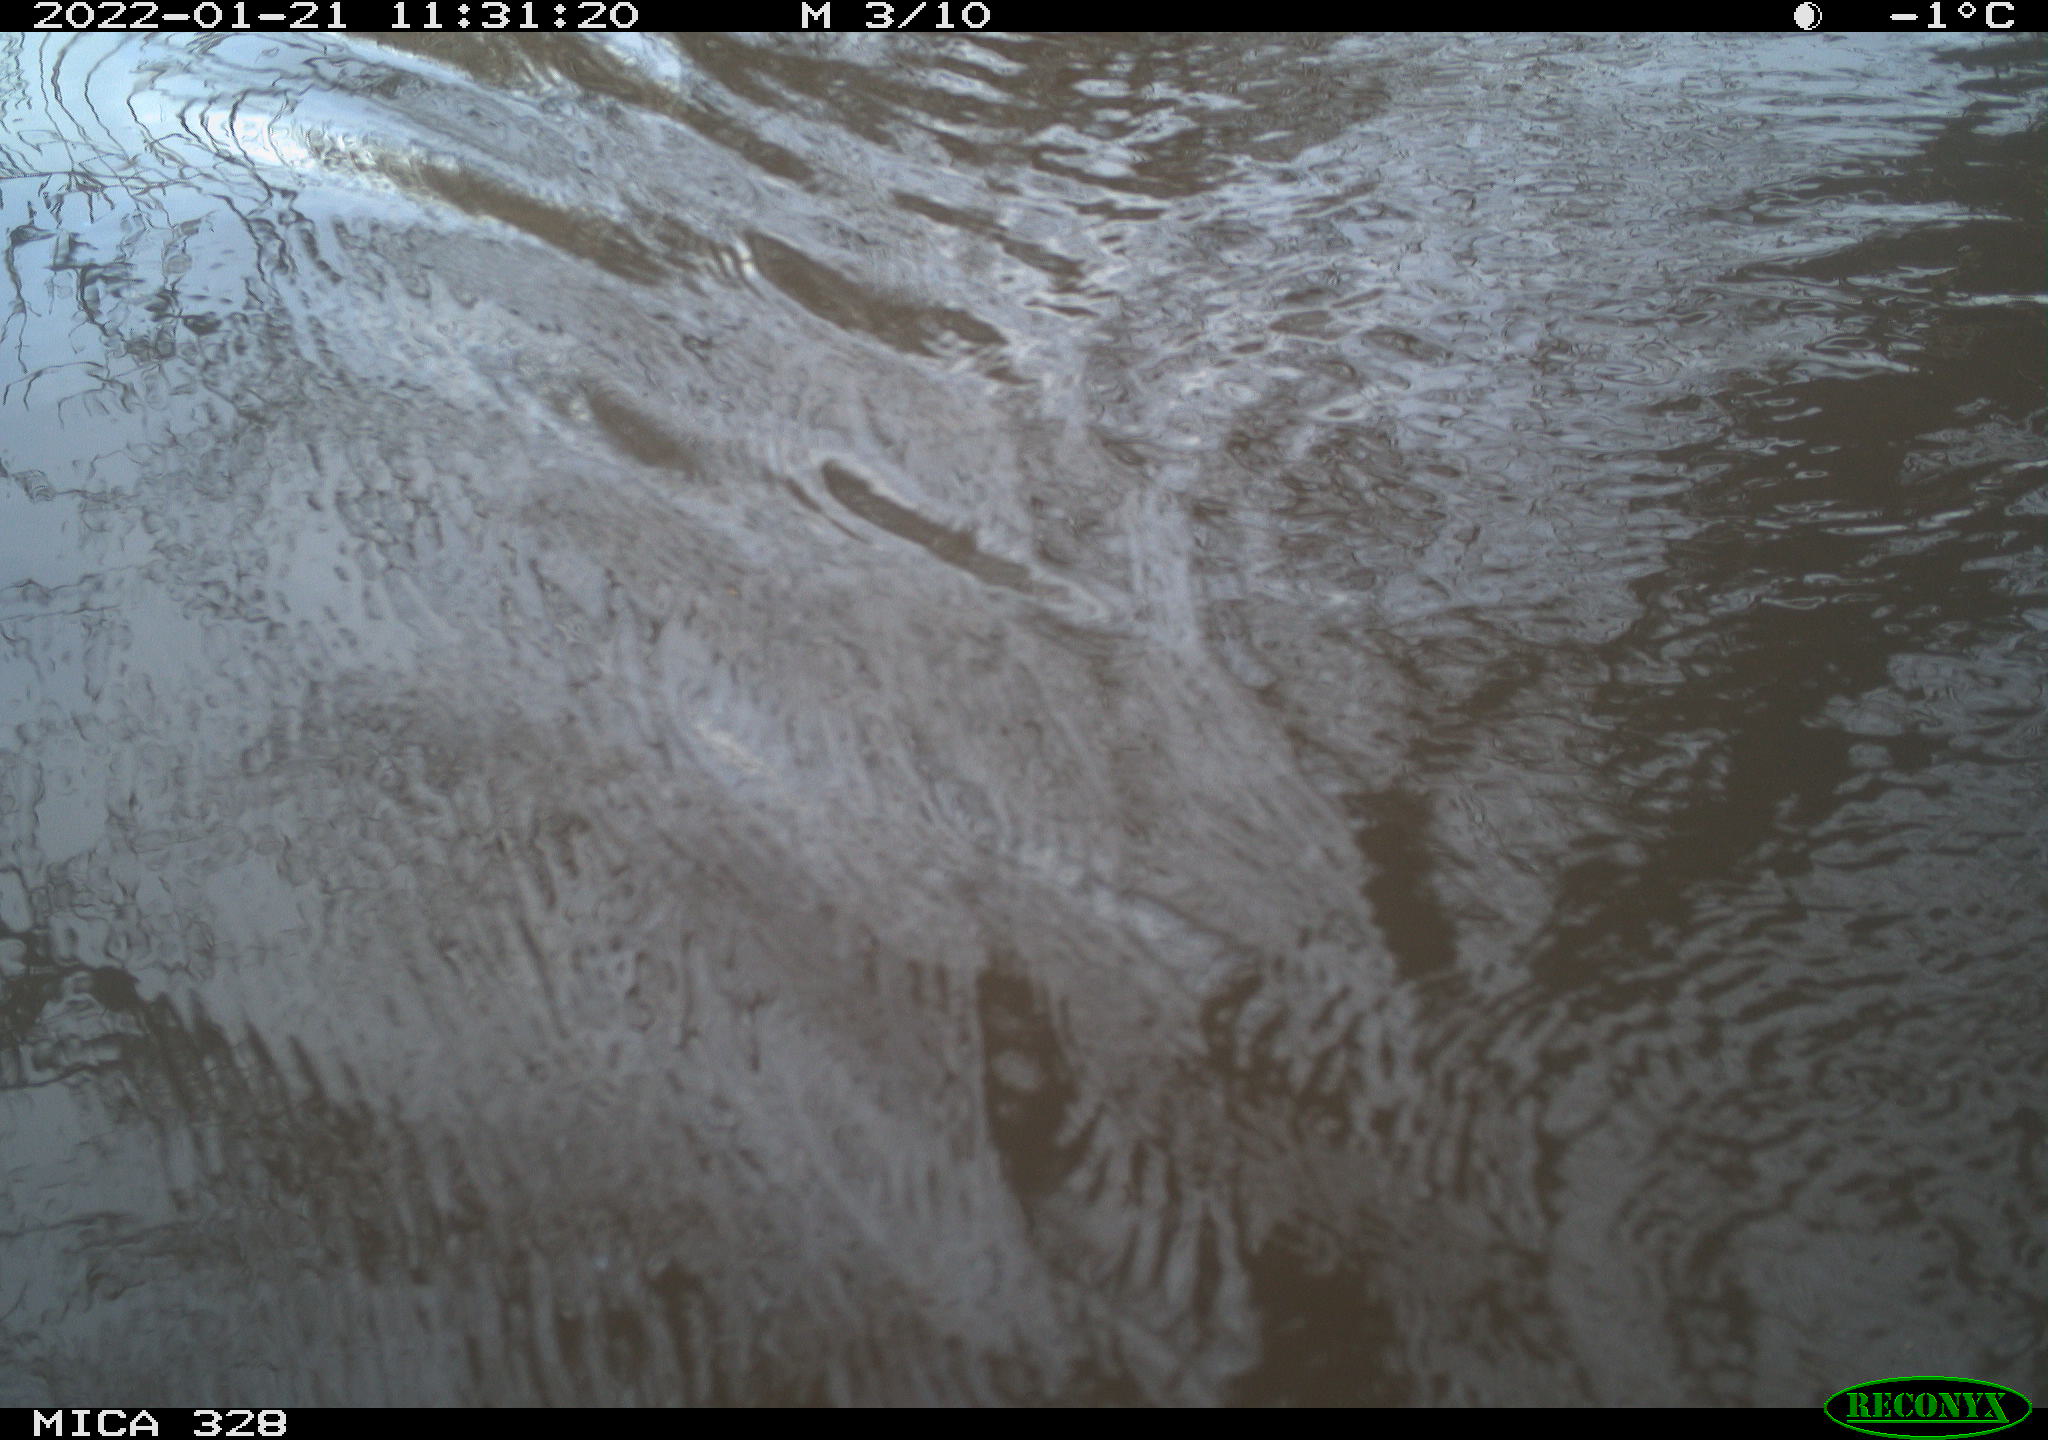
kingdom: Animalia
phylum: Chordata
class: Mammalia
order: Rodentia
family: Cricetidae
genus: Ondatra
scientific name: Ondatra zibethicus
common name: Muskrat
